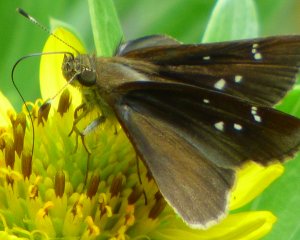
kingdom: Animalia
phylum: Arthropoda
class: Insecta
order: Lepidoptera
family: Hesperiidae
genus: Lerema
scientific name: Lerema accius
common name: Clouded Skipper
